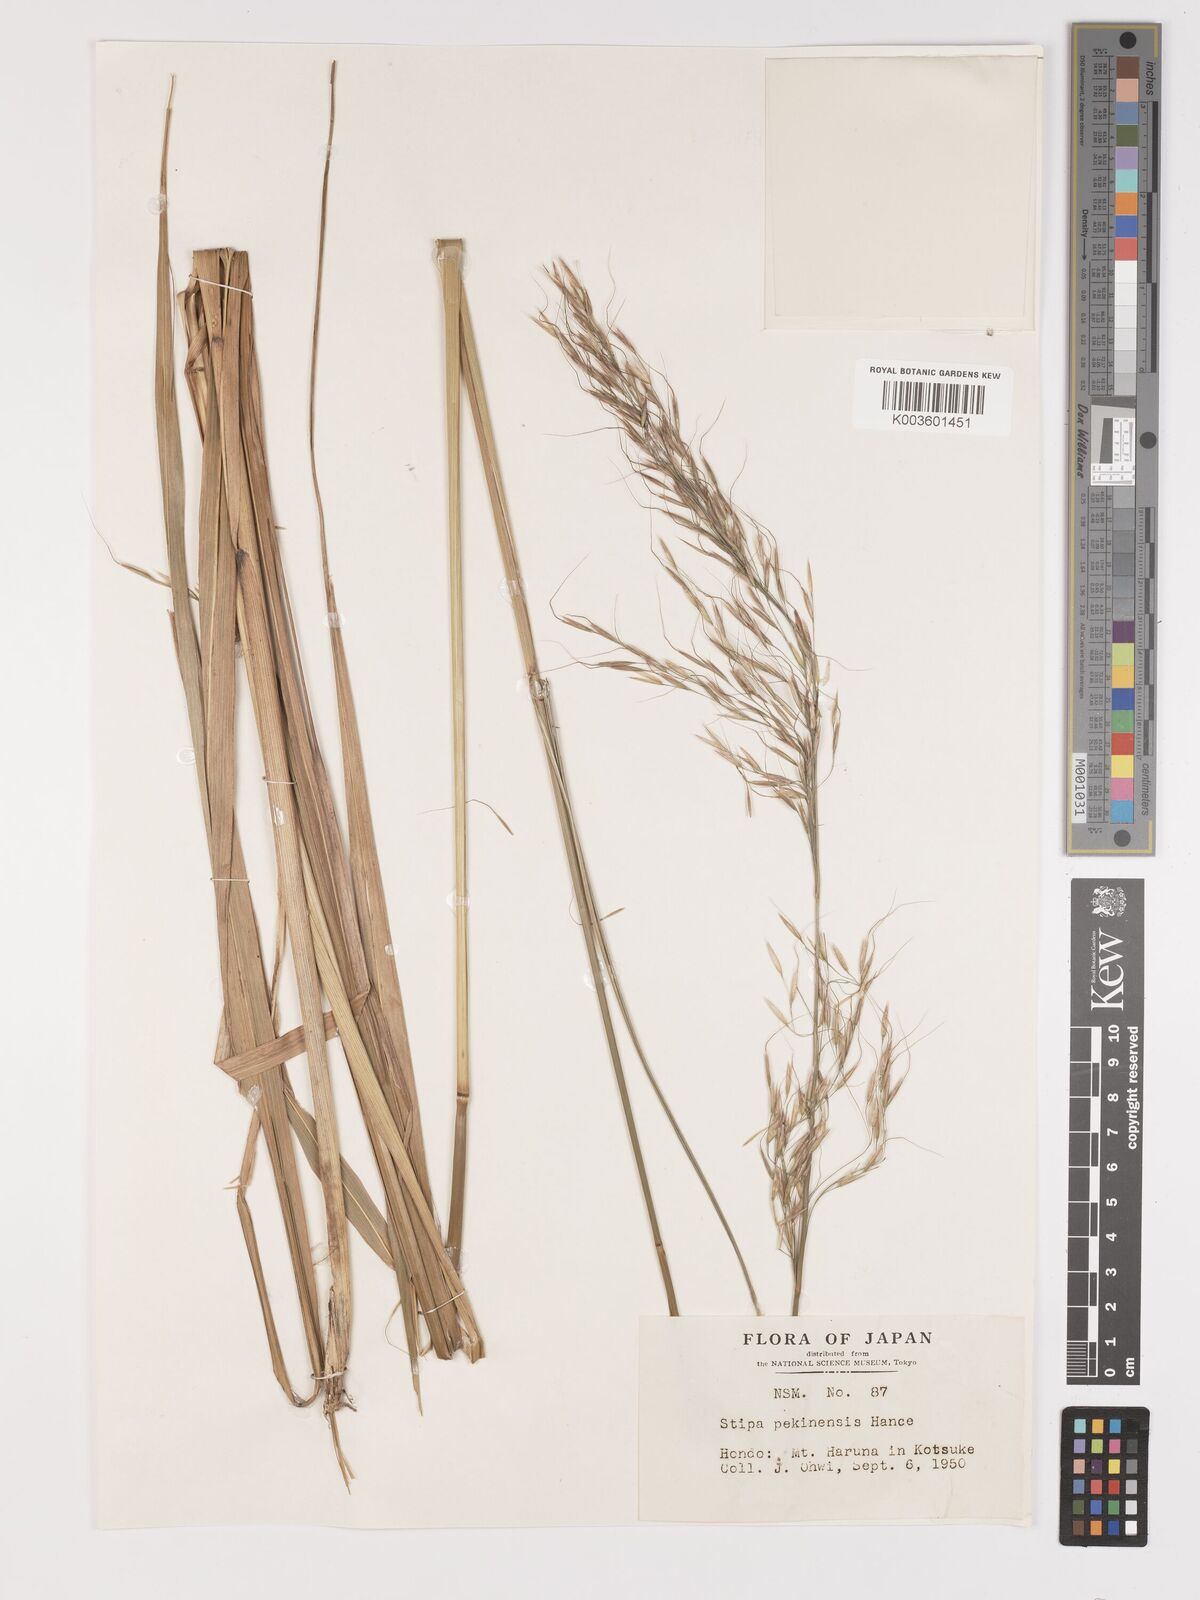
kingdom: Plantae
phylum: Tracheophyta
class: Liliopsida
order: Poales
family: Poaceae
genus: Achnatherum
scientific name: Achnatherum pekinense
